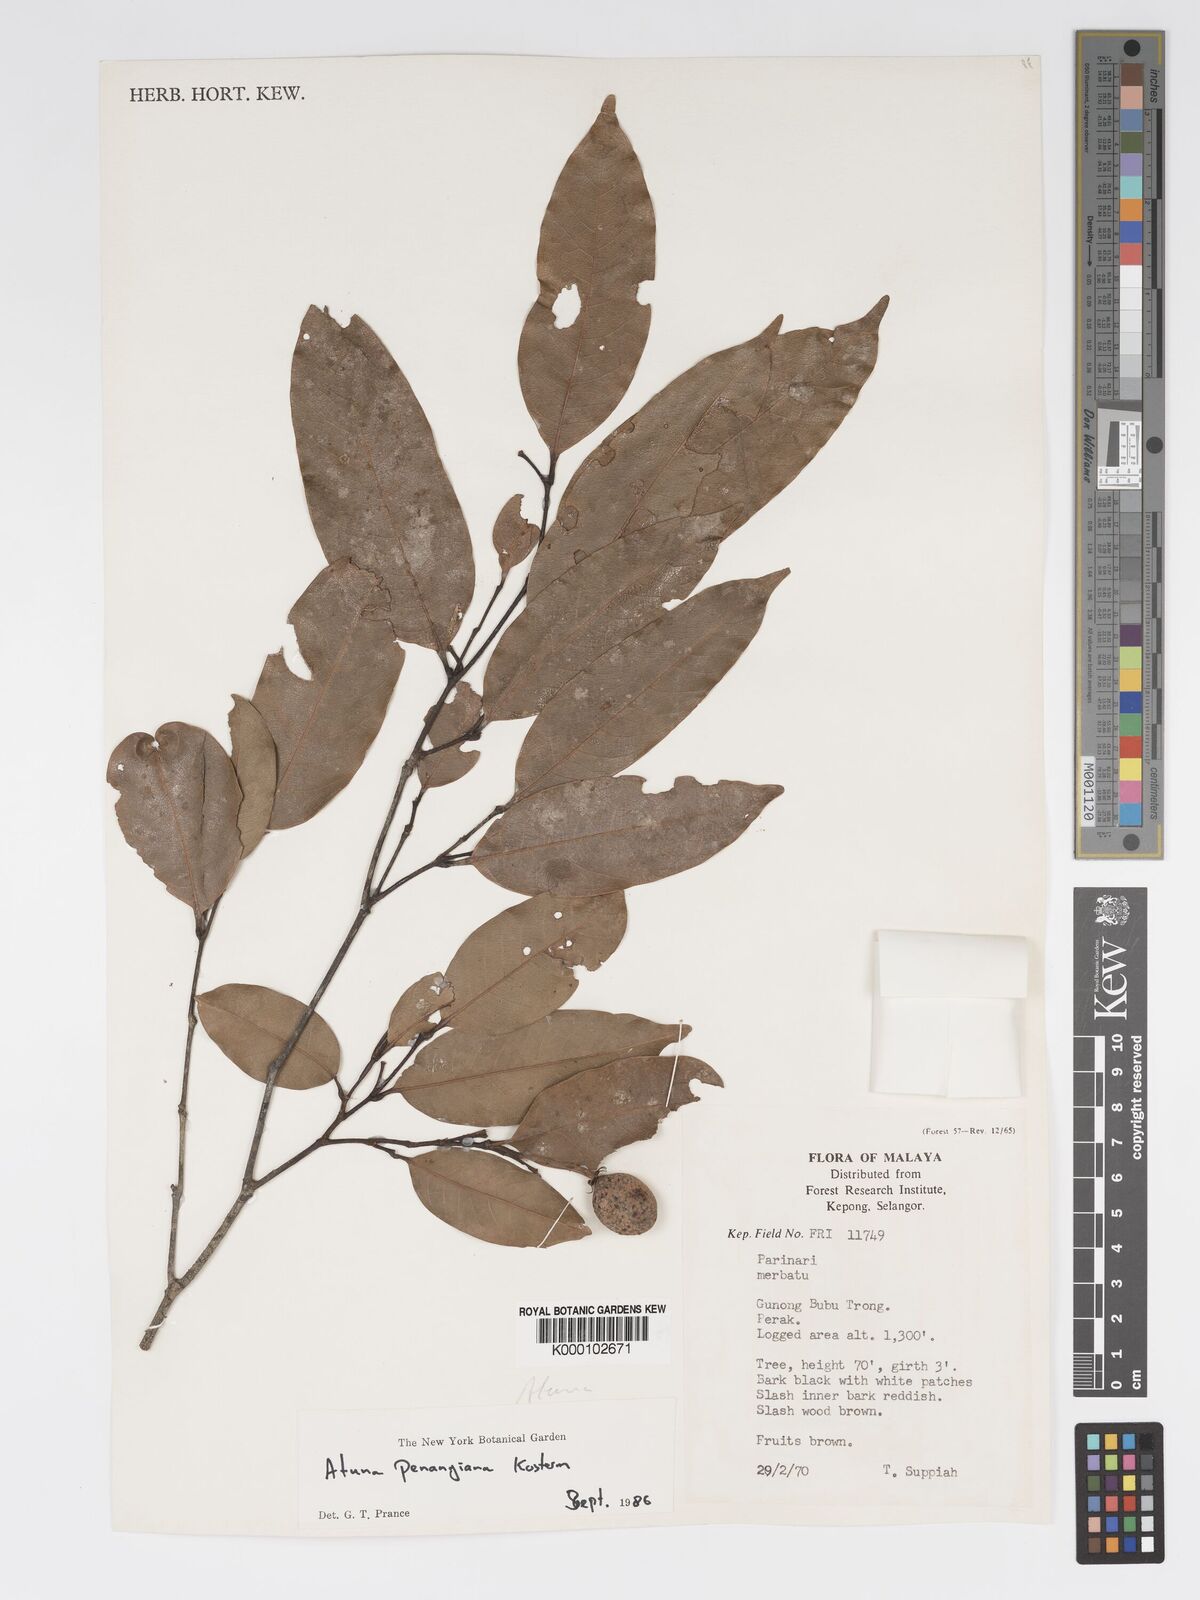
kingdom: Plantae
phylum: Tracheophyta
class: Magnoliopsida
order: Malpighiales
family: Chrysobalanaceae
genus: Atuna
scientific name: Atuna penangiana
